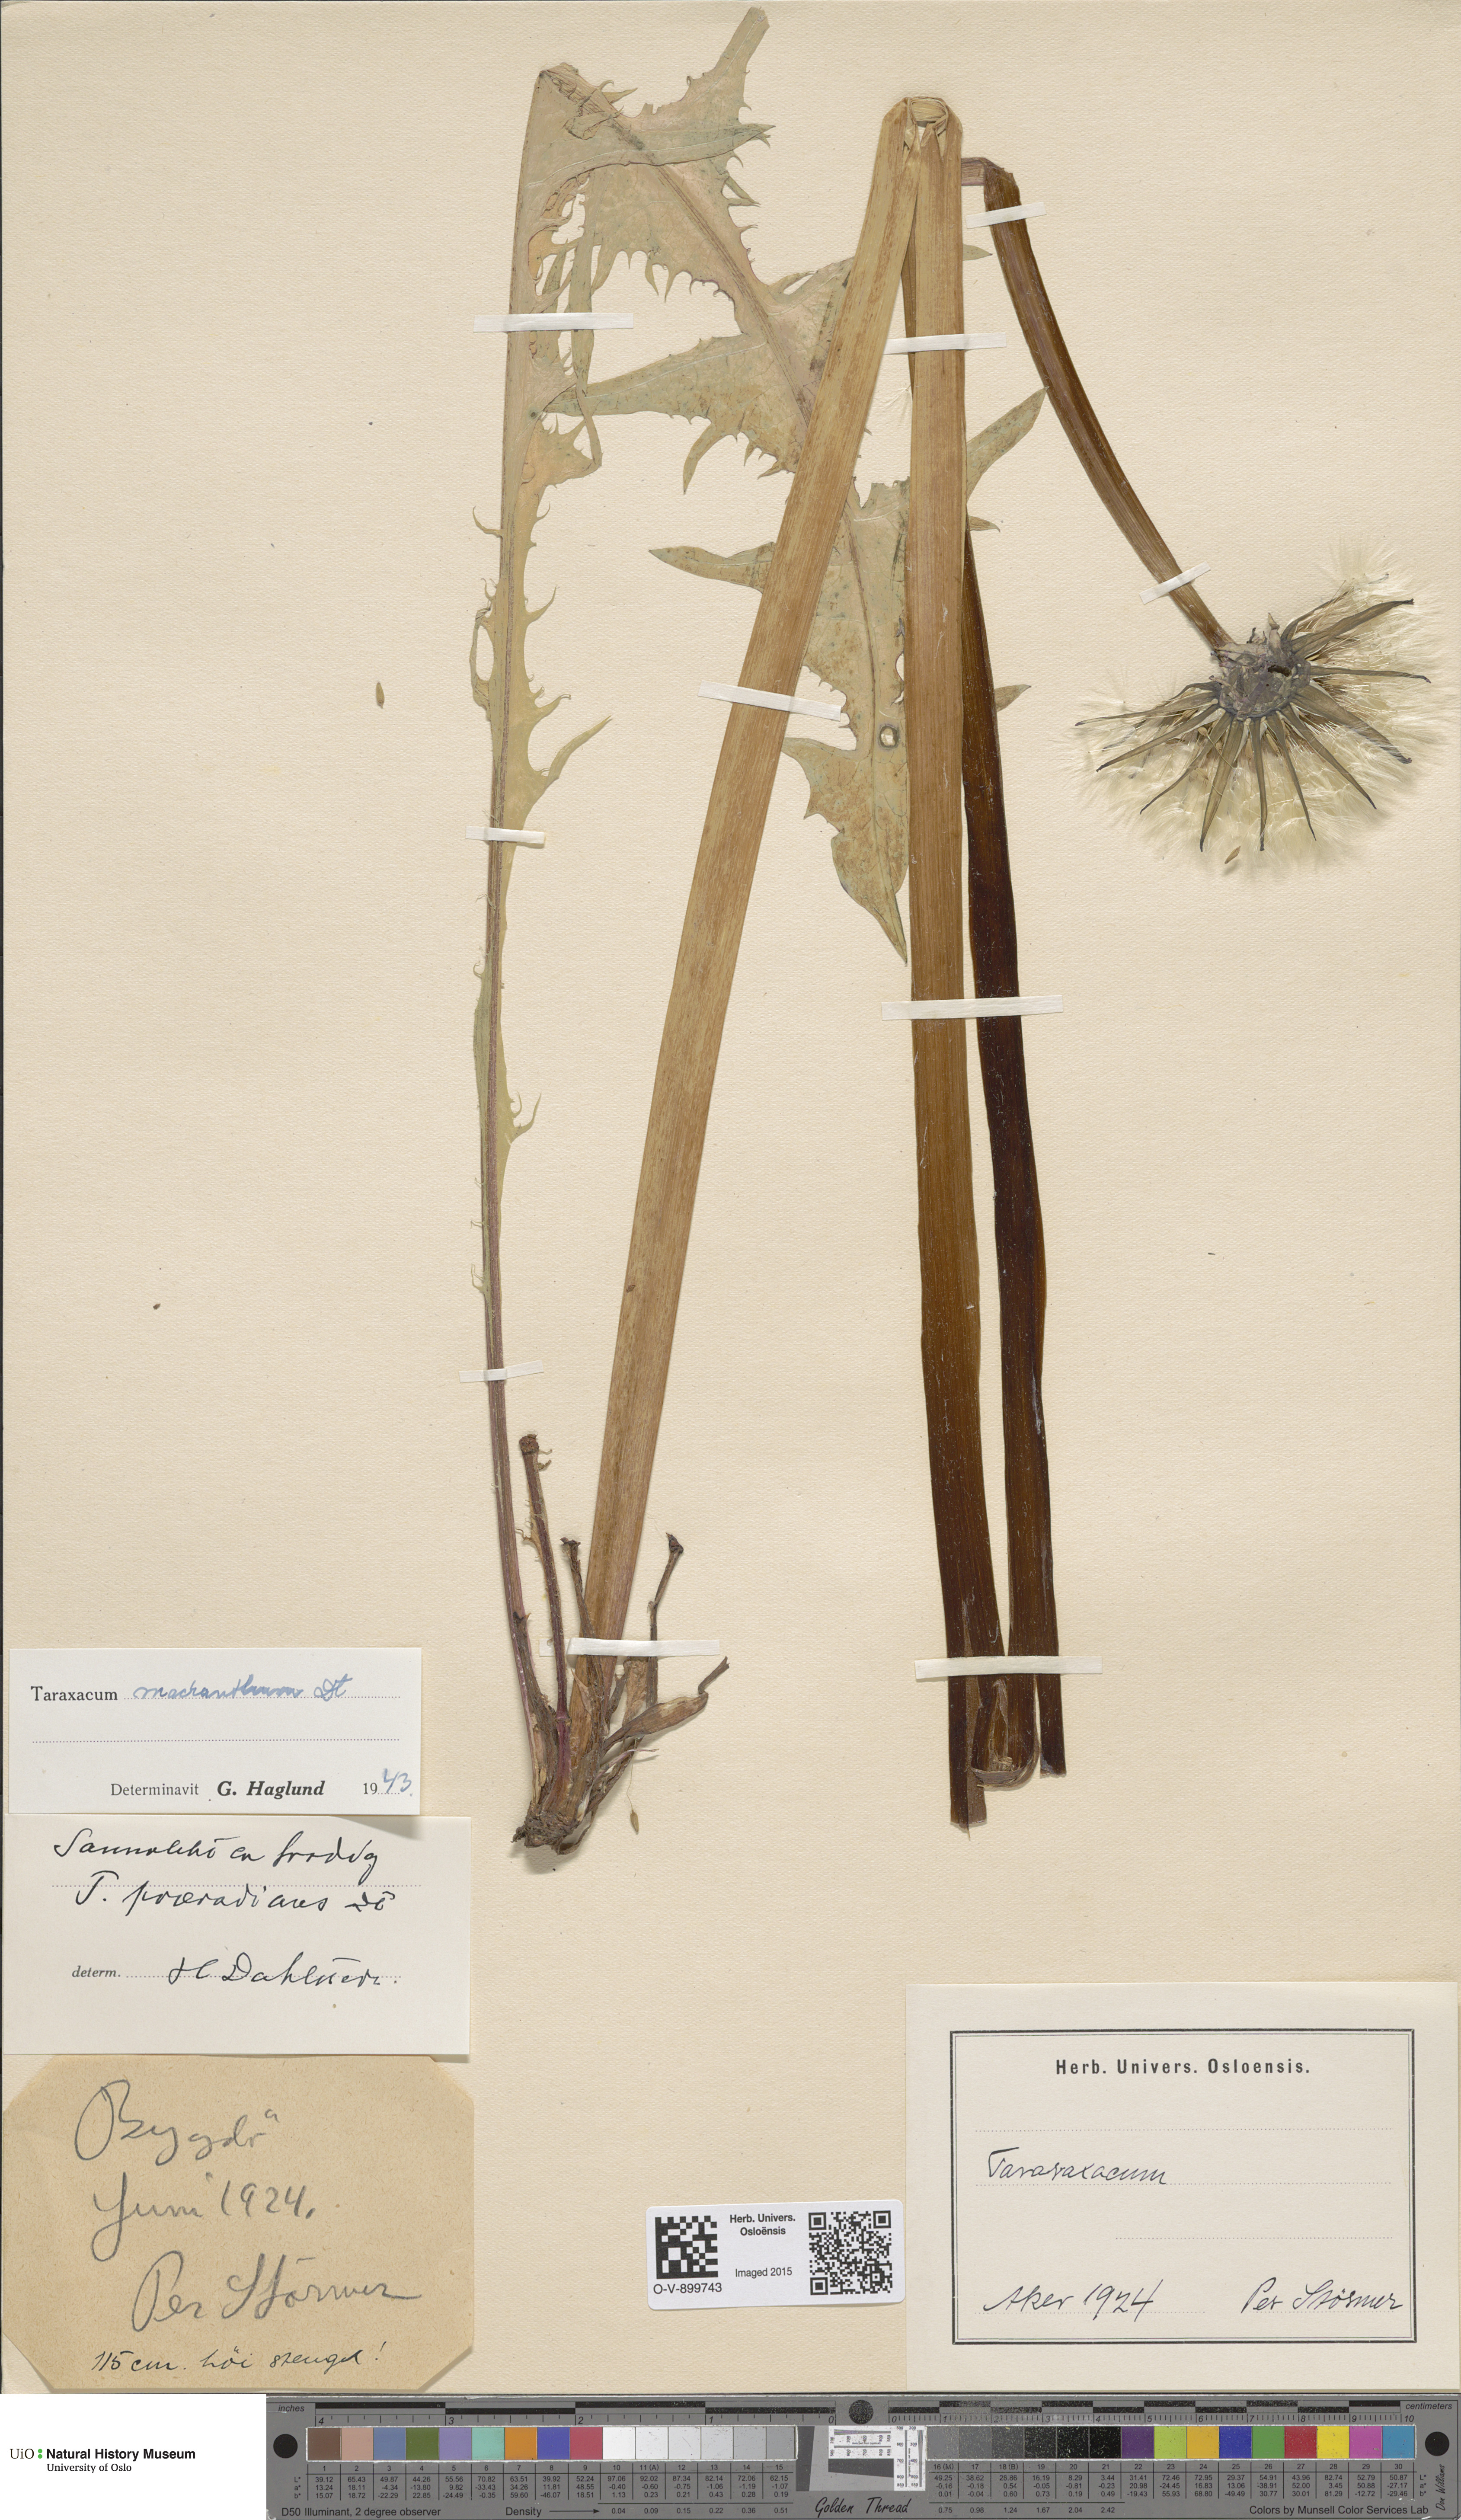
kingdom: Plantae
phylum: Tracheophyta
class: Magnoliopsida
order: Asterales
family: Asteraceae
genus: Taraxacum
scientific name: Taraxacum praeradians
